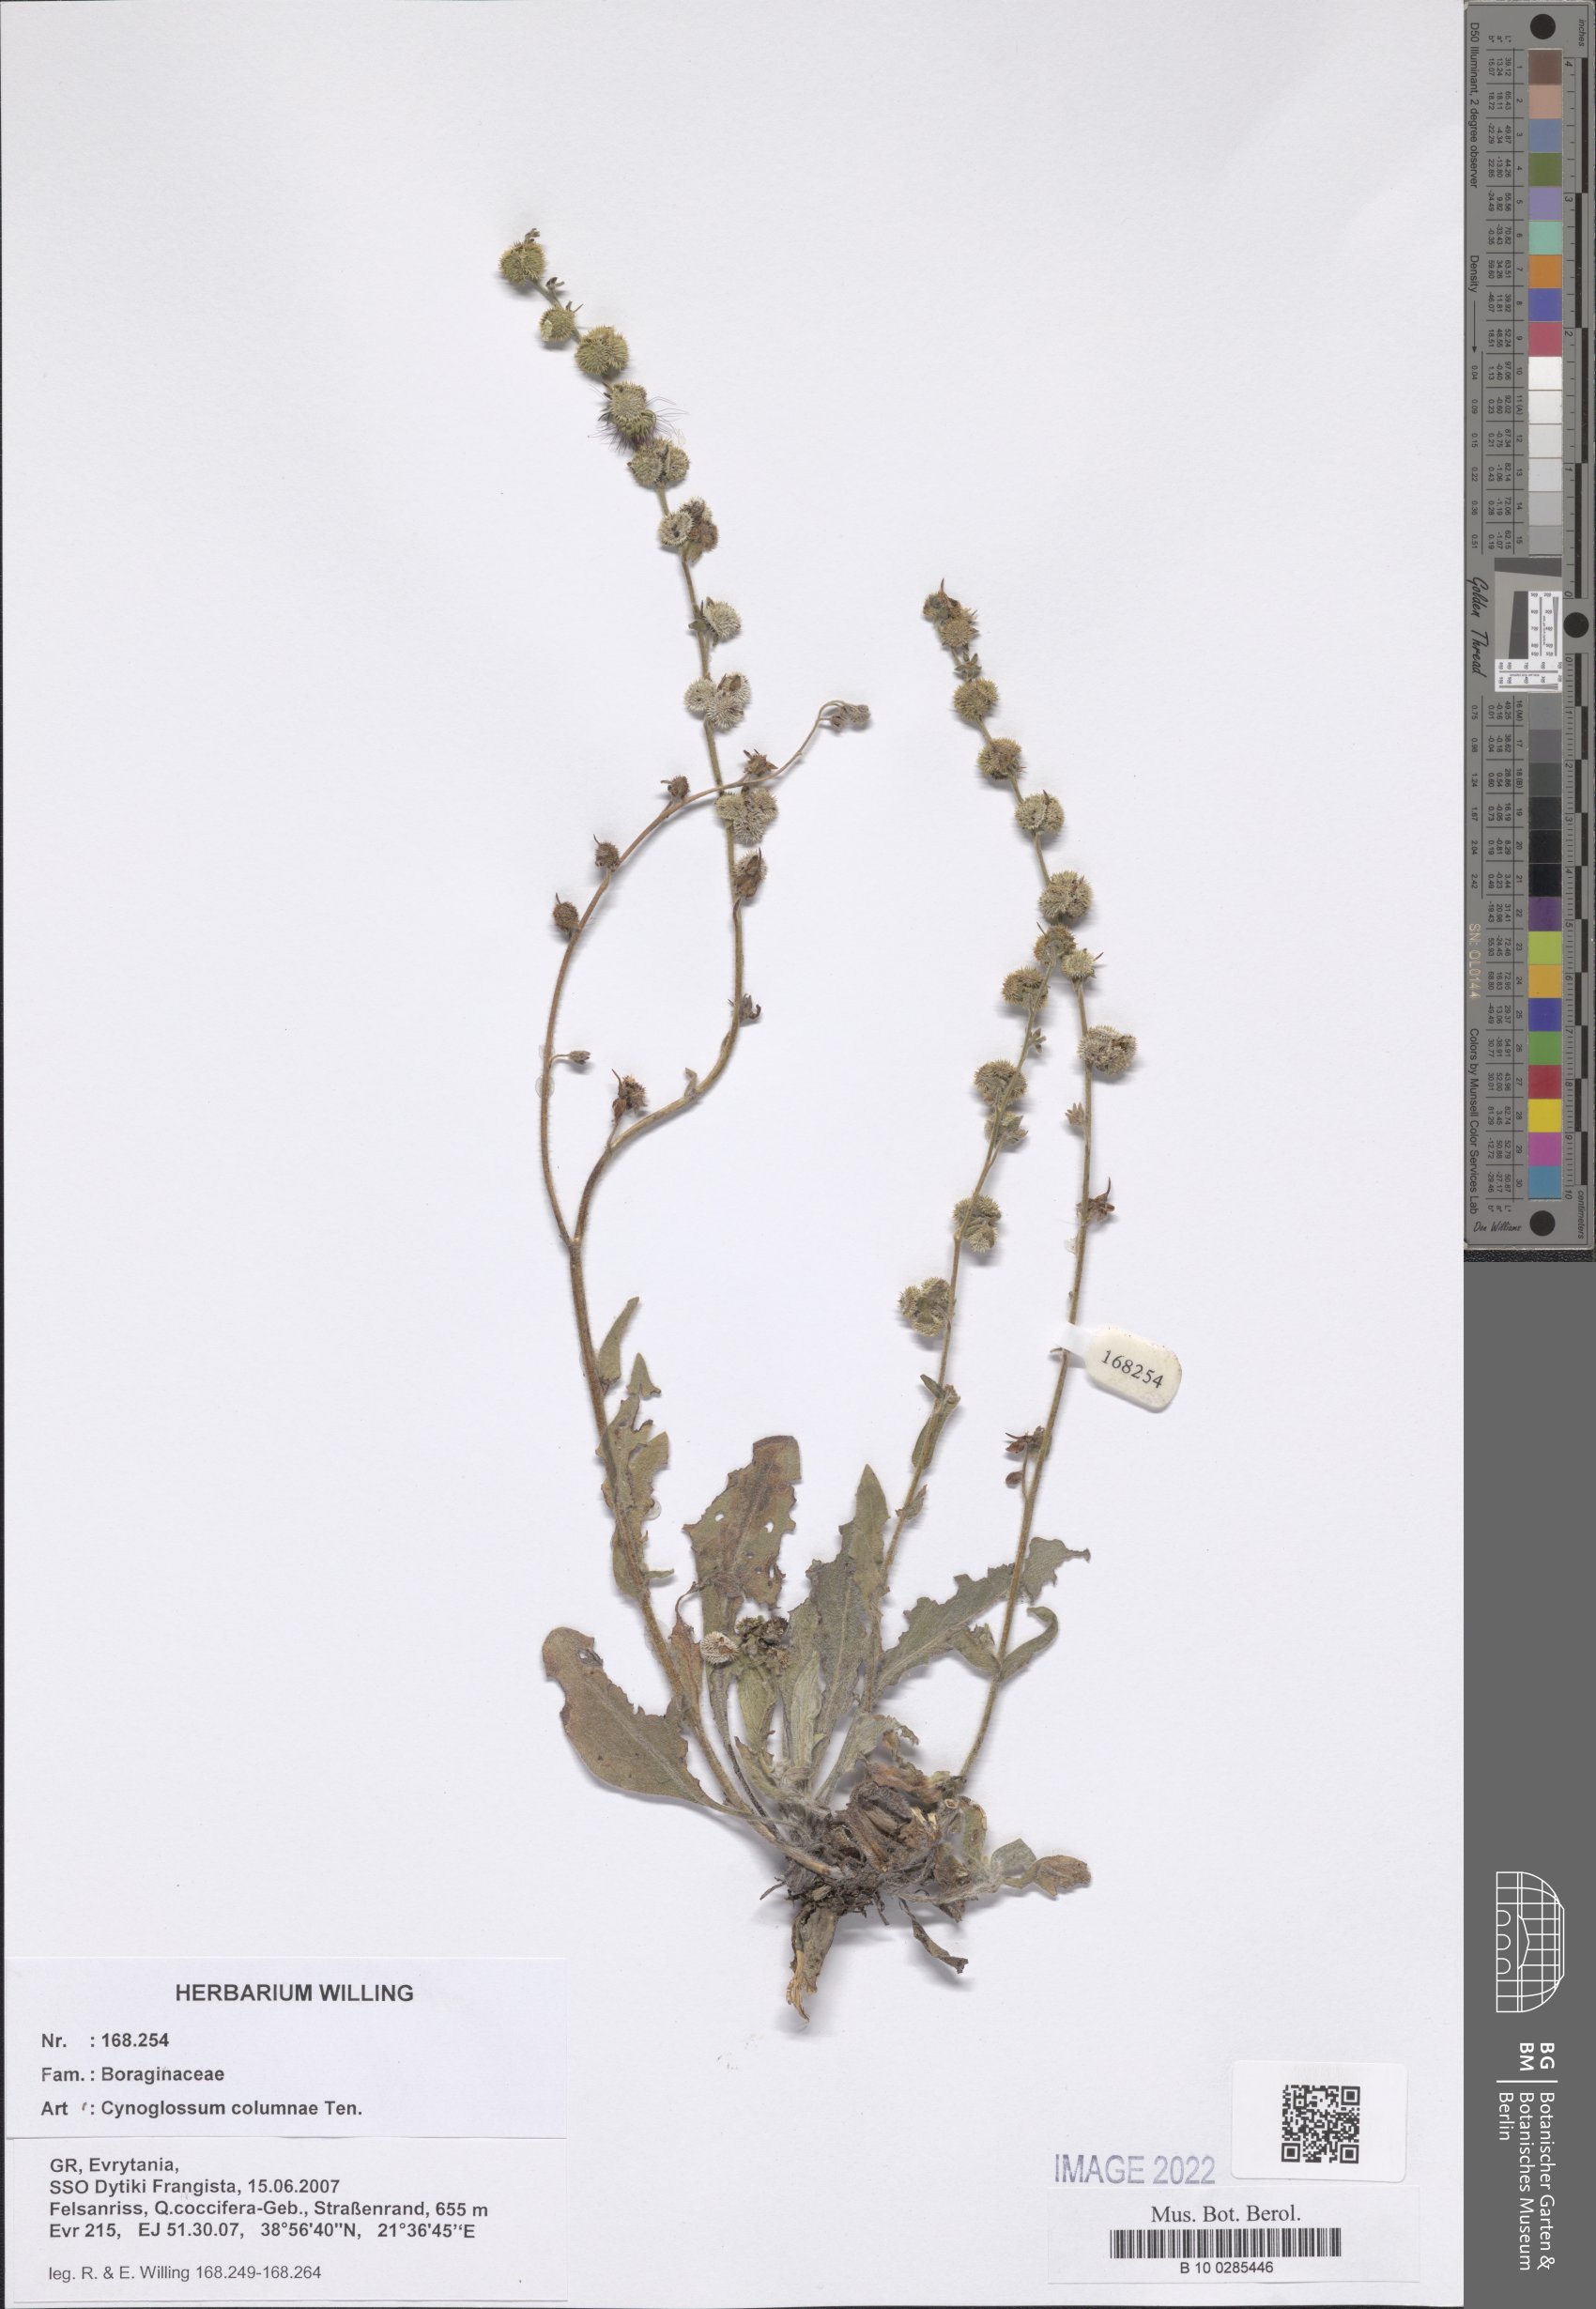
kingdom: Plantae
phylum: Tracheophyta
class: Magnoliopsida
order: Boraginales
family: Boraginaceae
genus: Rindera
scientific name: Rindera columnae
